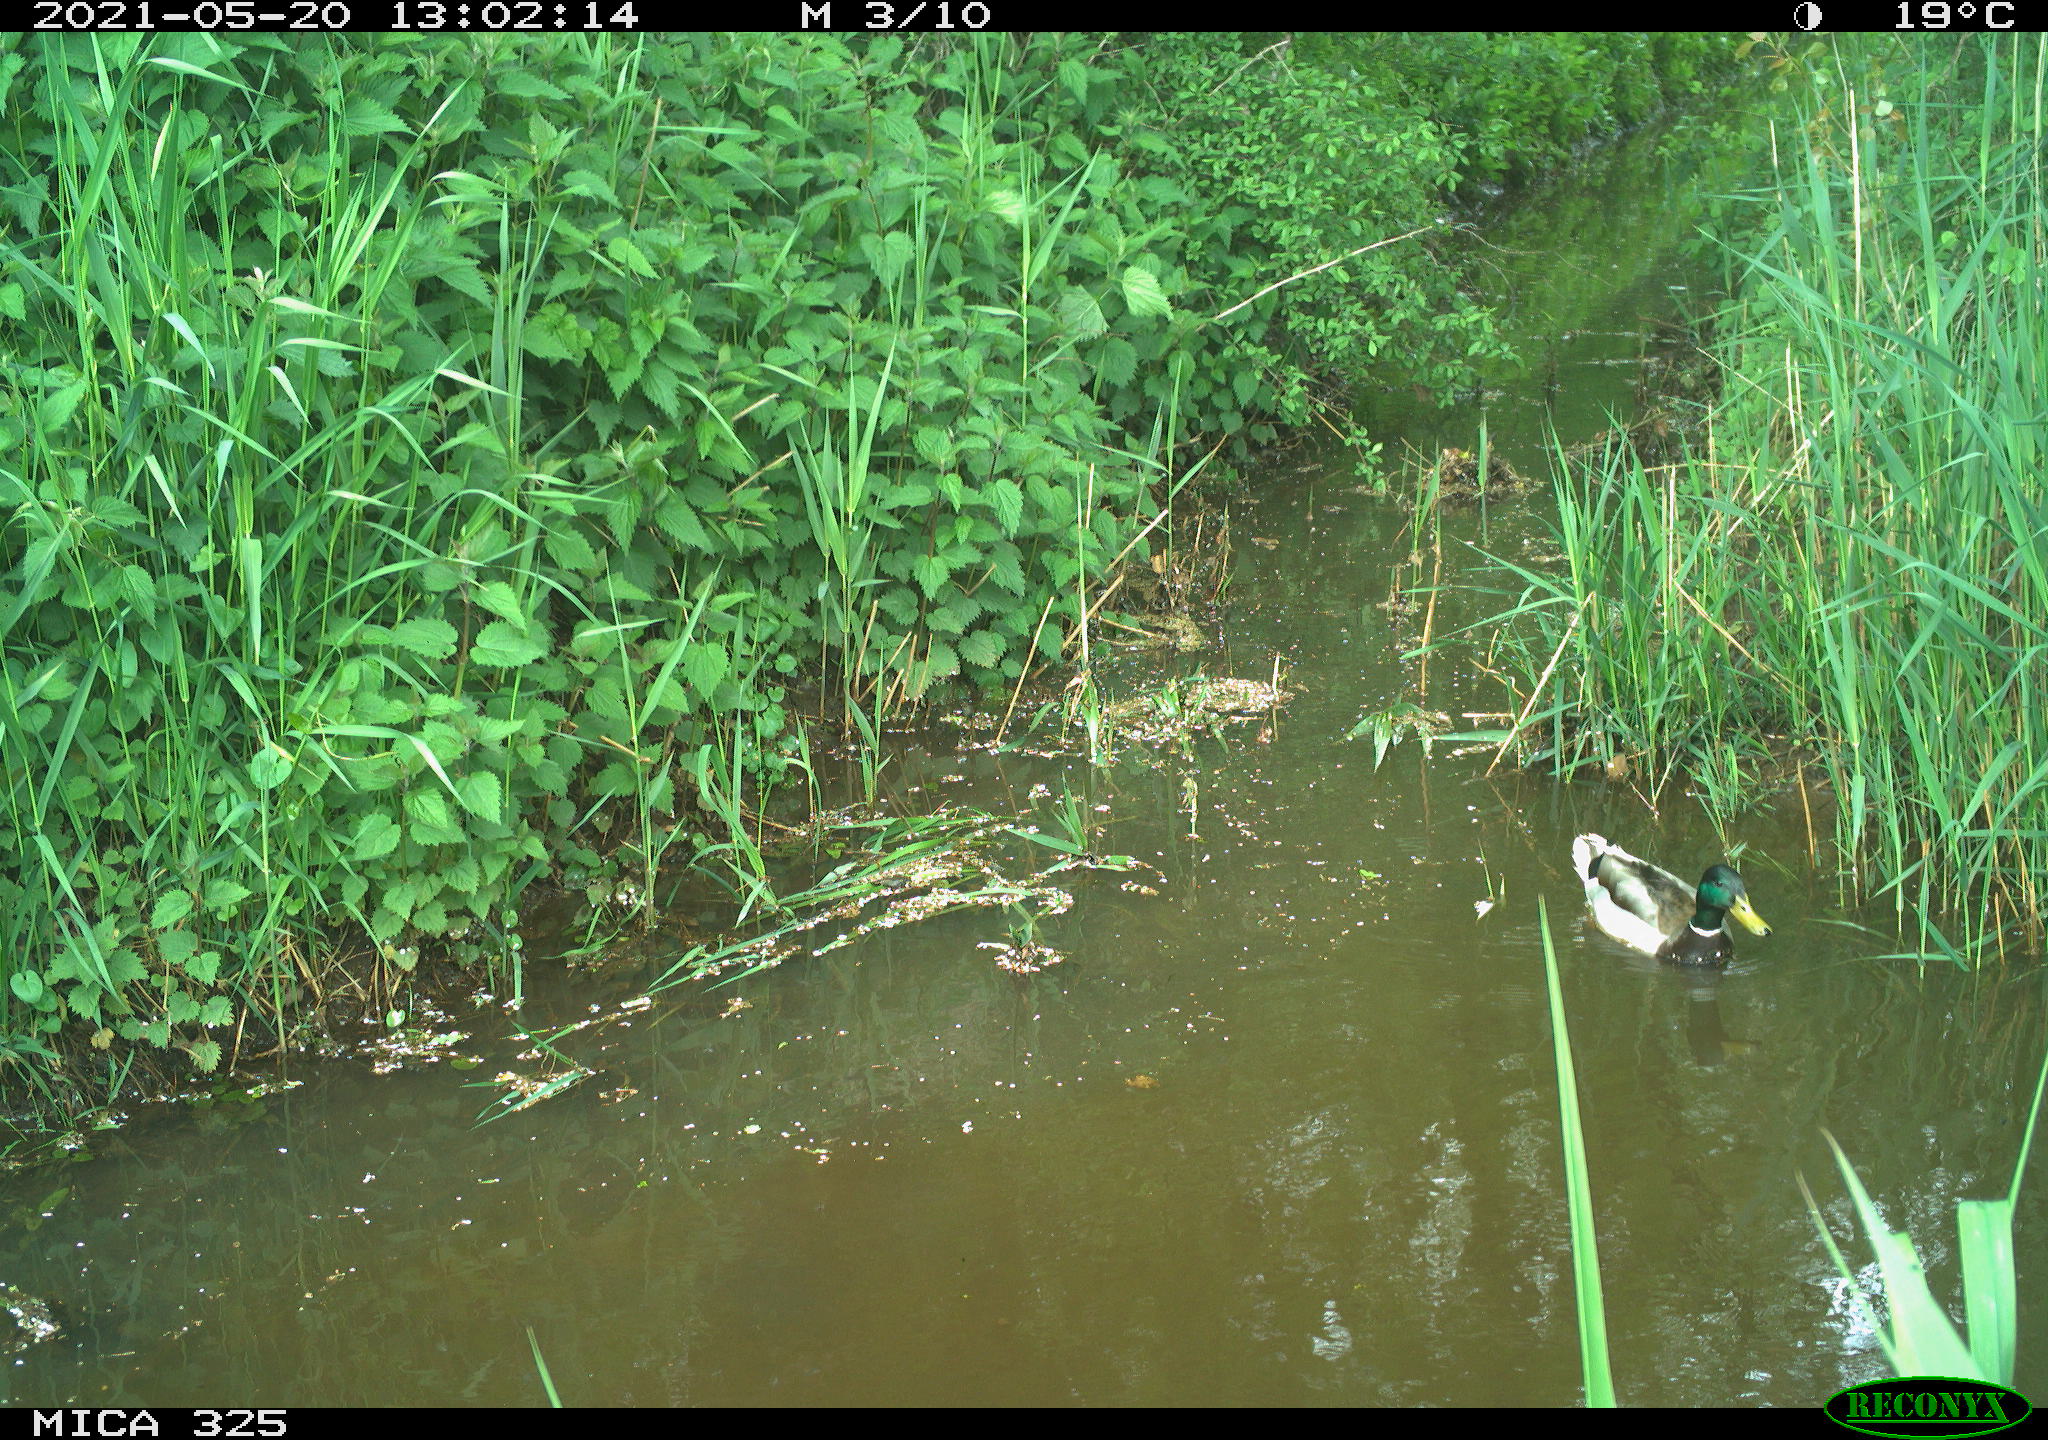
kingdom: Animalia
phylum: Chordata
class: Aves
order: Anseriformes
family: Anatidae
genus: Anas
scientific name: Anas platyrhynchos
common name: Mallard
